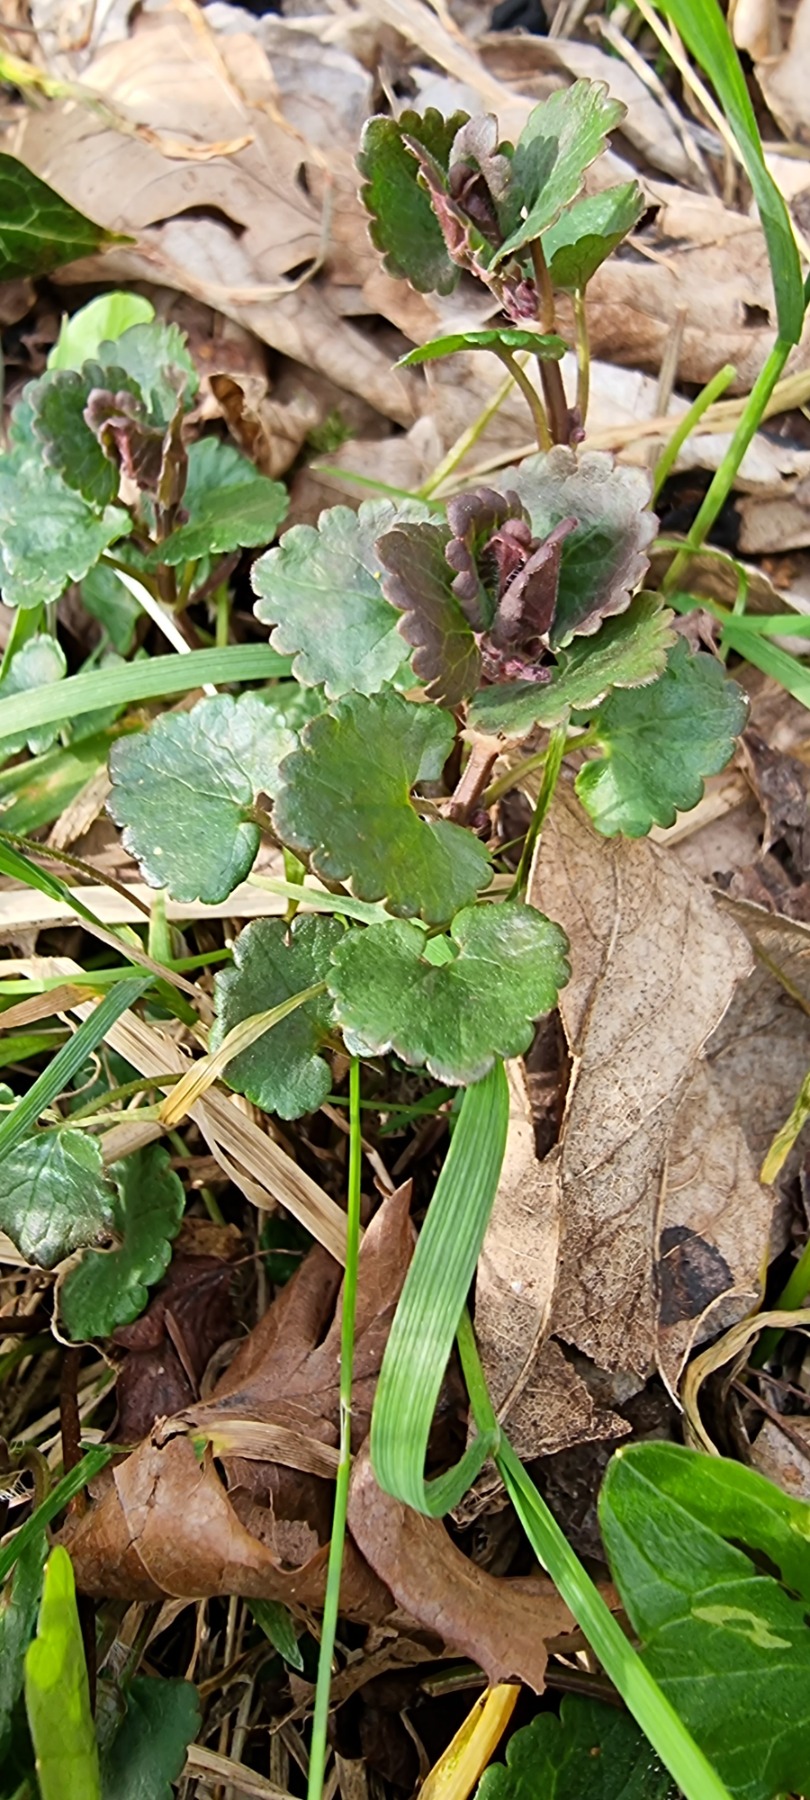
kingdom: Plantae
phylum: Tracheophyta
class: Magnoliopsida
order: Lamiales
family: Lamiaceae
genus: Glechoma
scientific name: Glechoma hederacea
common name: Korsknap
